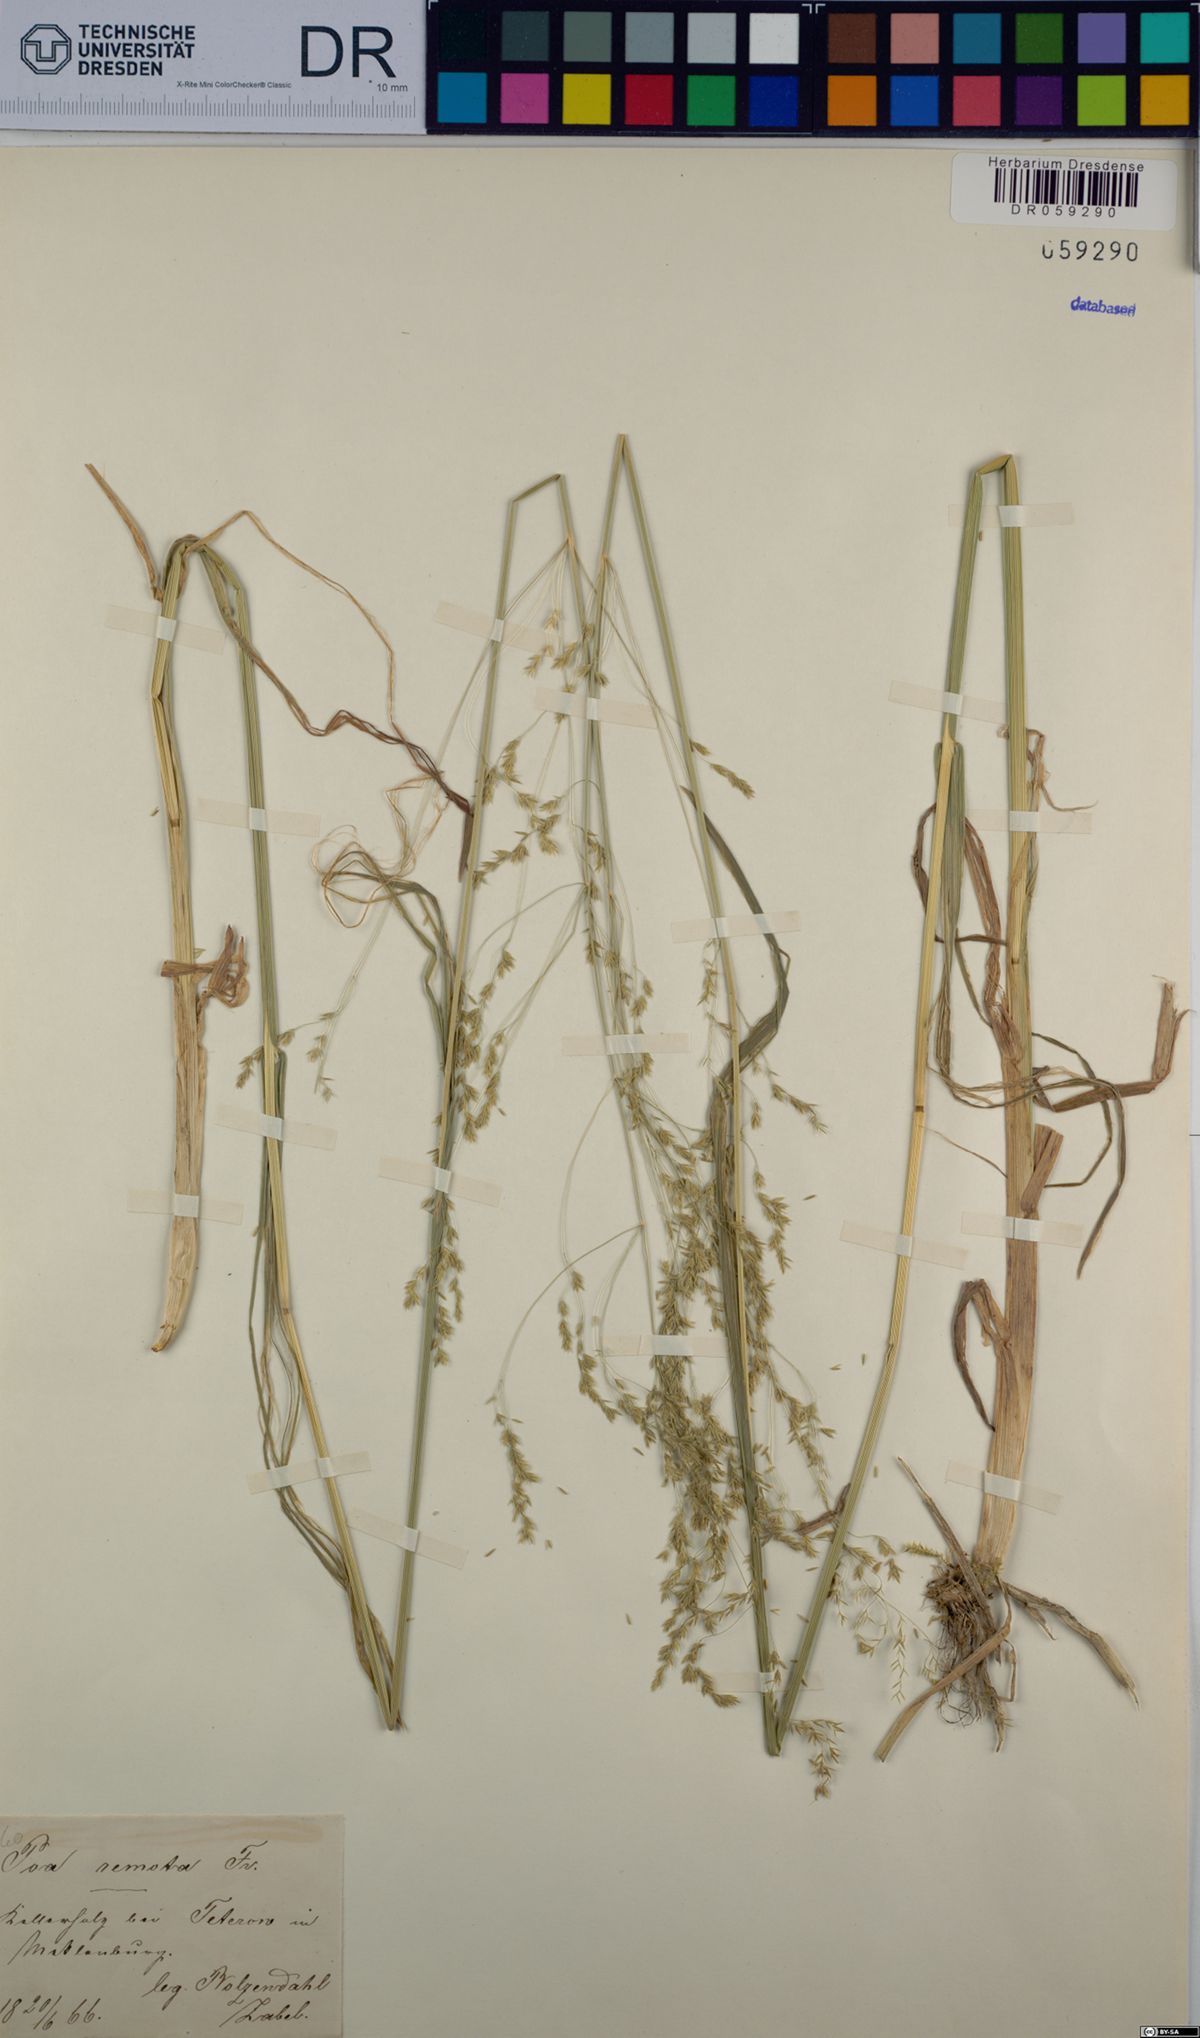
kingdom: Plantae
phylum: Tracheophyta
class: Liliopsida
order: Poales
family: Poaceae
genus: Poa
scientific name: Poa remota
